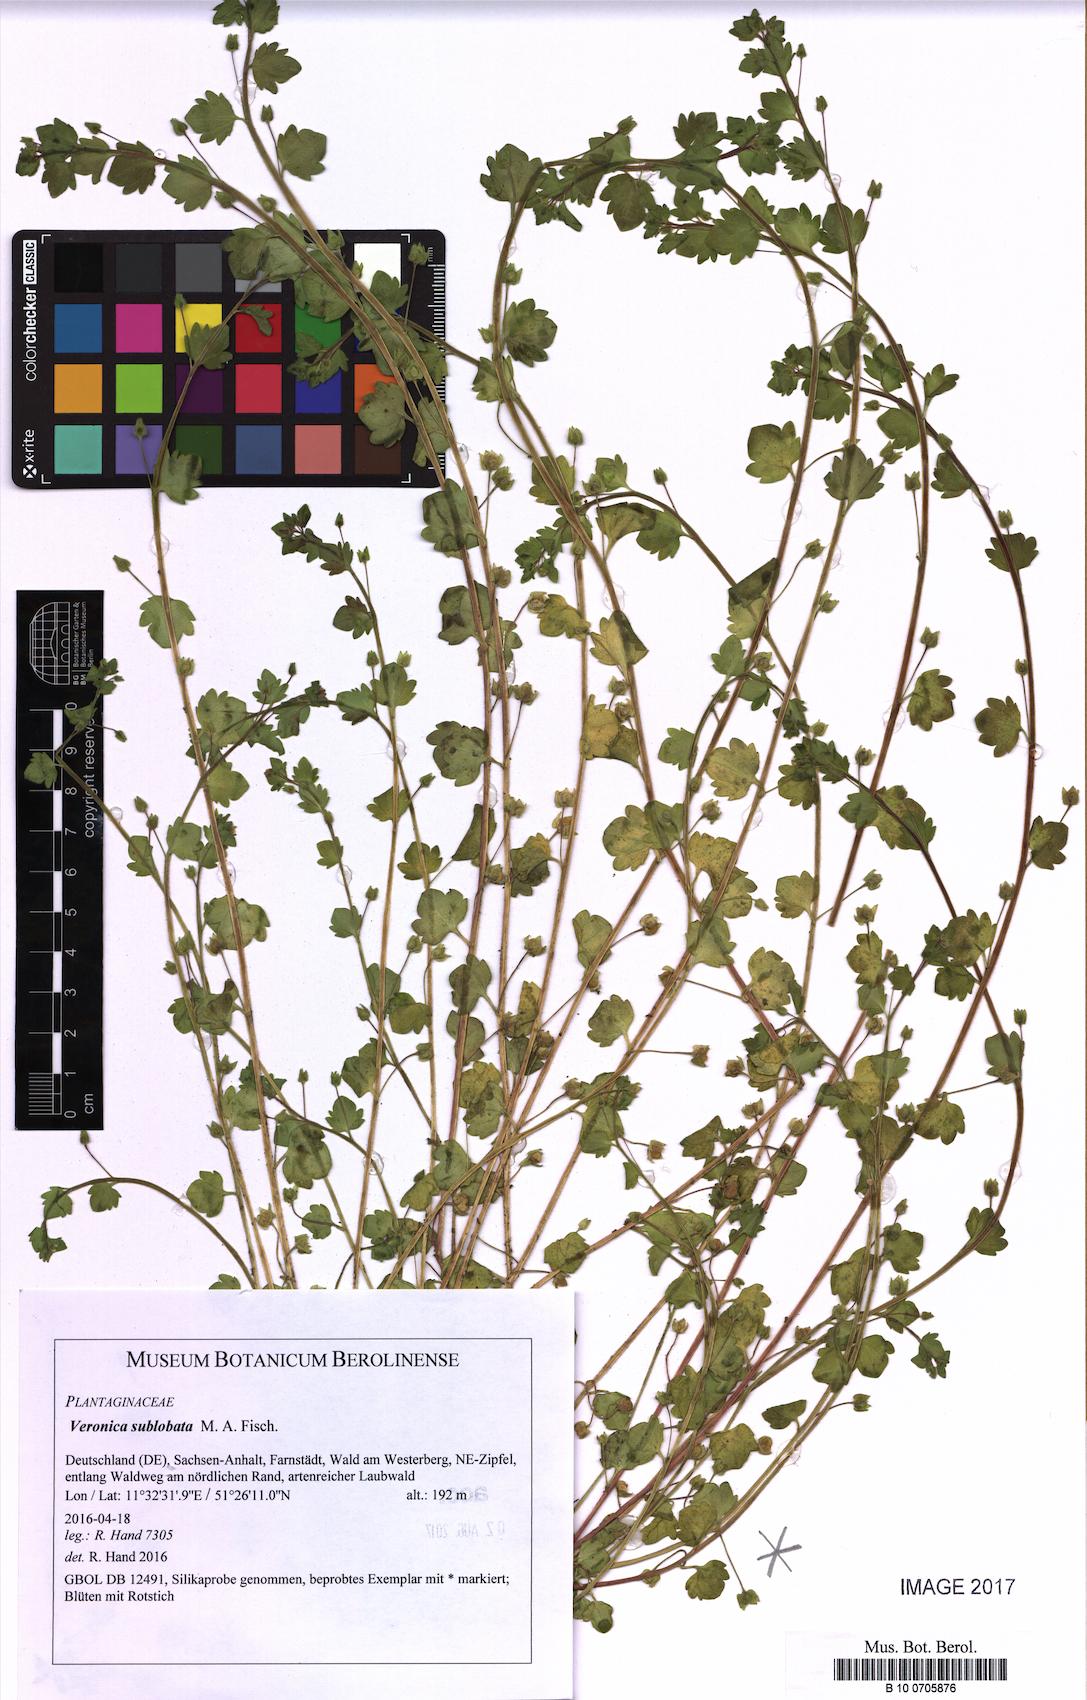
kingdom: Plantae
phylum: Tracheophyta
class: Magnoliopsida
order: Lamiales
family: Plantaginaceae
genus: Veronica
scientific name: Veronica sublobata
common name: False ivy-leaved speedwell
